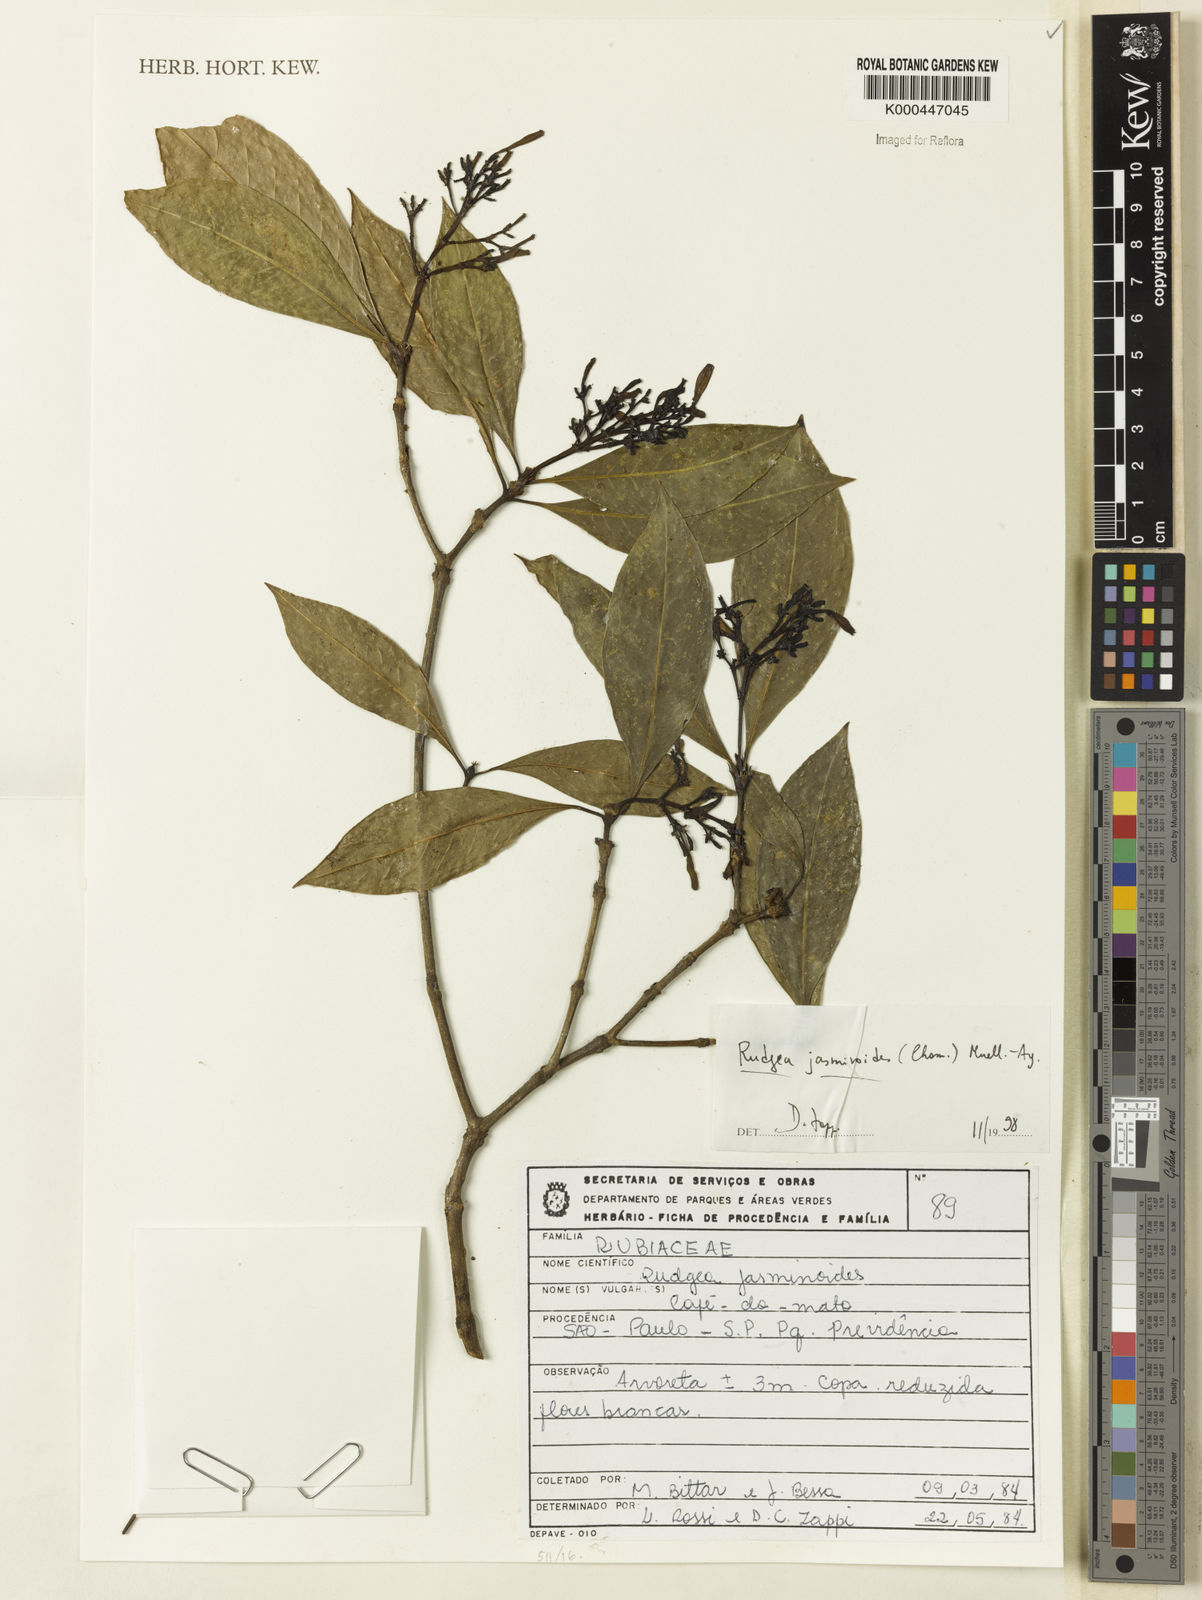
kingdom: Plantae
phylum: Tracheophyta
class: Magnoliopsida
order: Gentianales
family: Rubiaceae
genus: Rudgea
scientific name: Rudgea jasminoides
